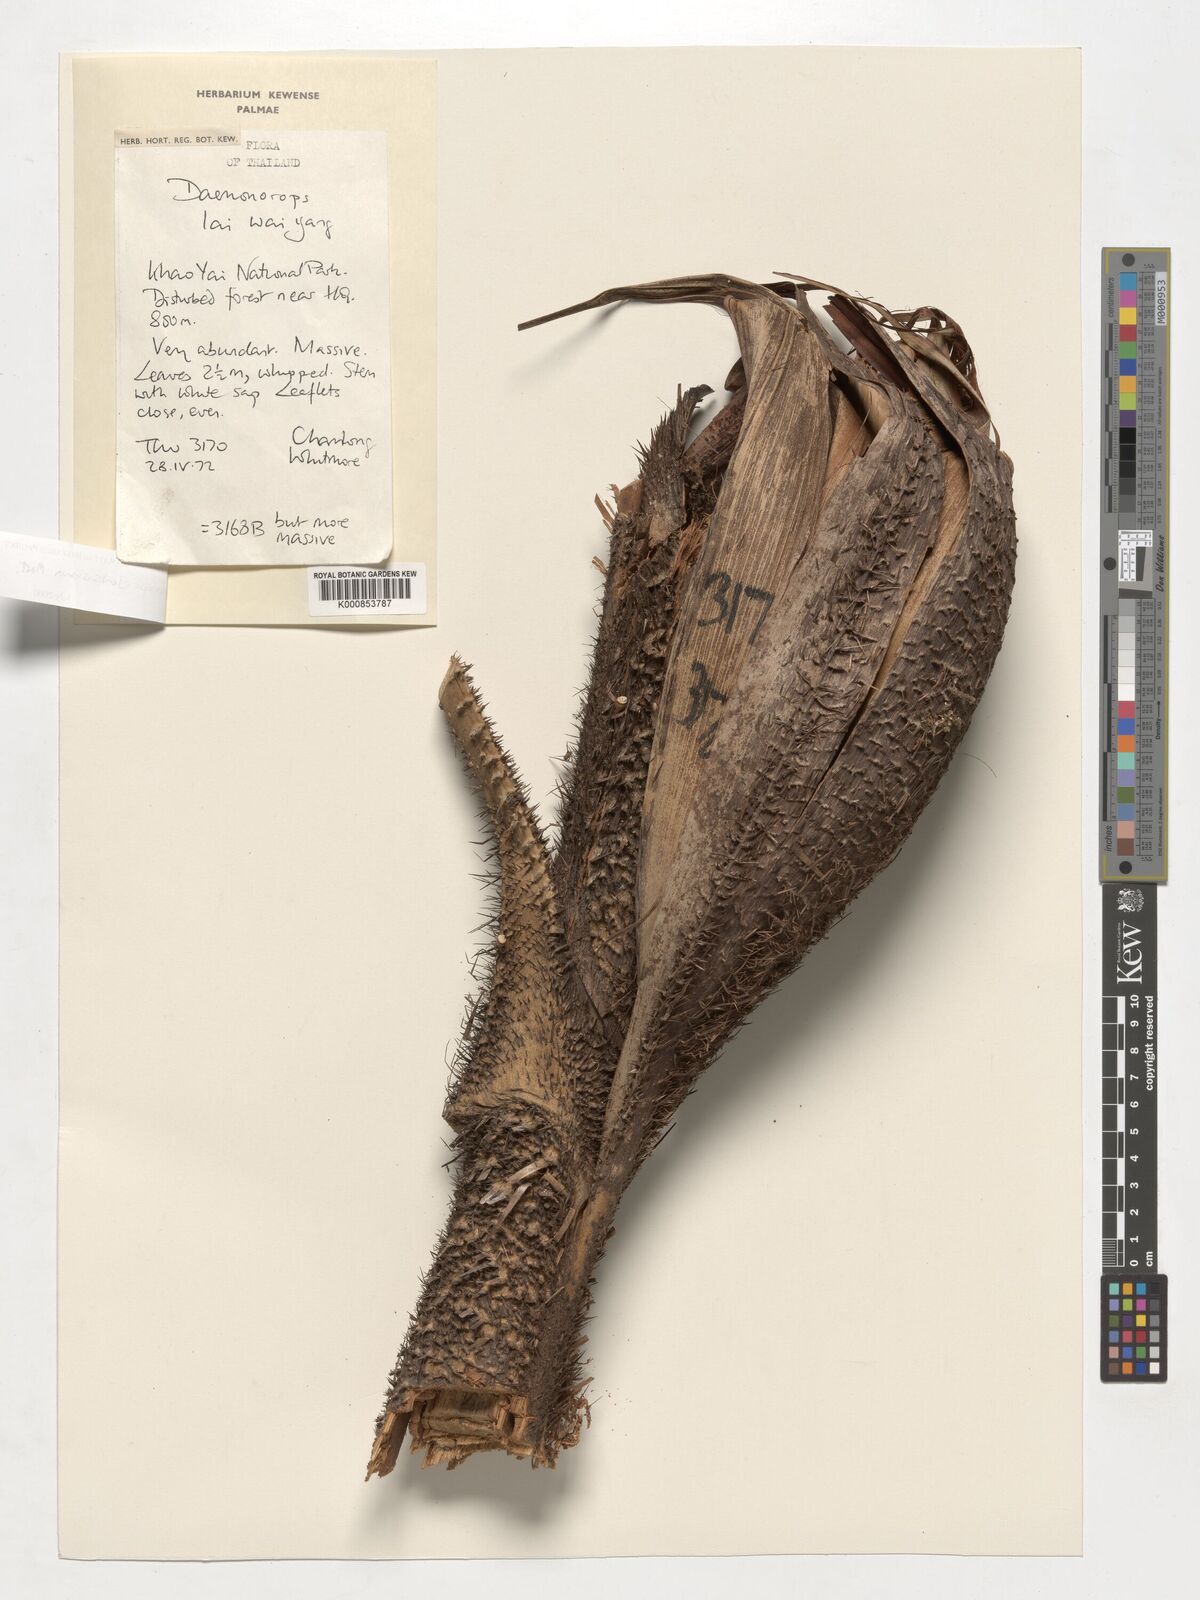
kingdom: Plantae
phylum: Tracheophyta
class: Liliopsida
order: Arecales
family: Arecaceae
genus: Calamus
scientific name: Calamus melanochaetes
